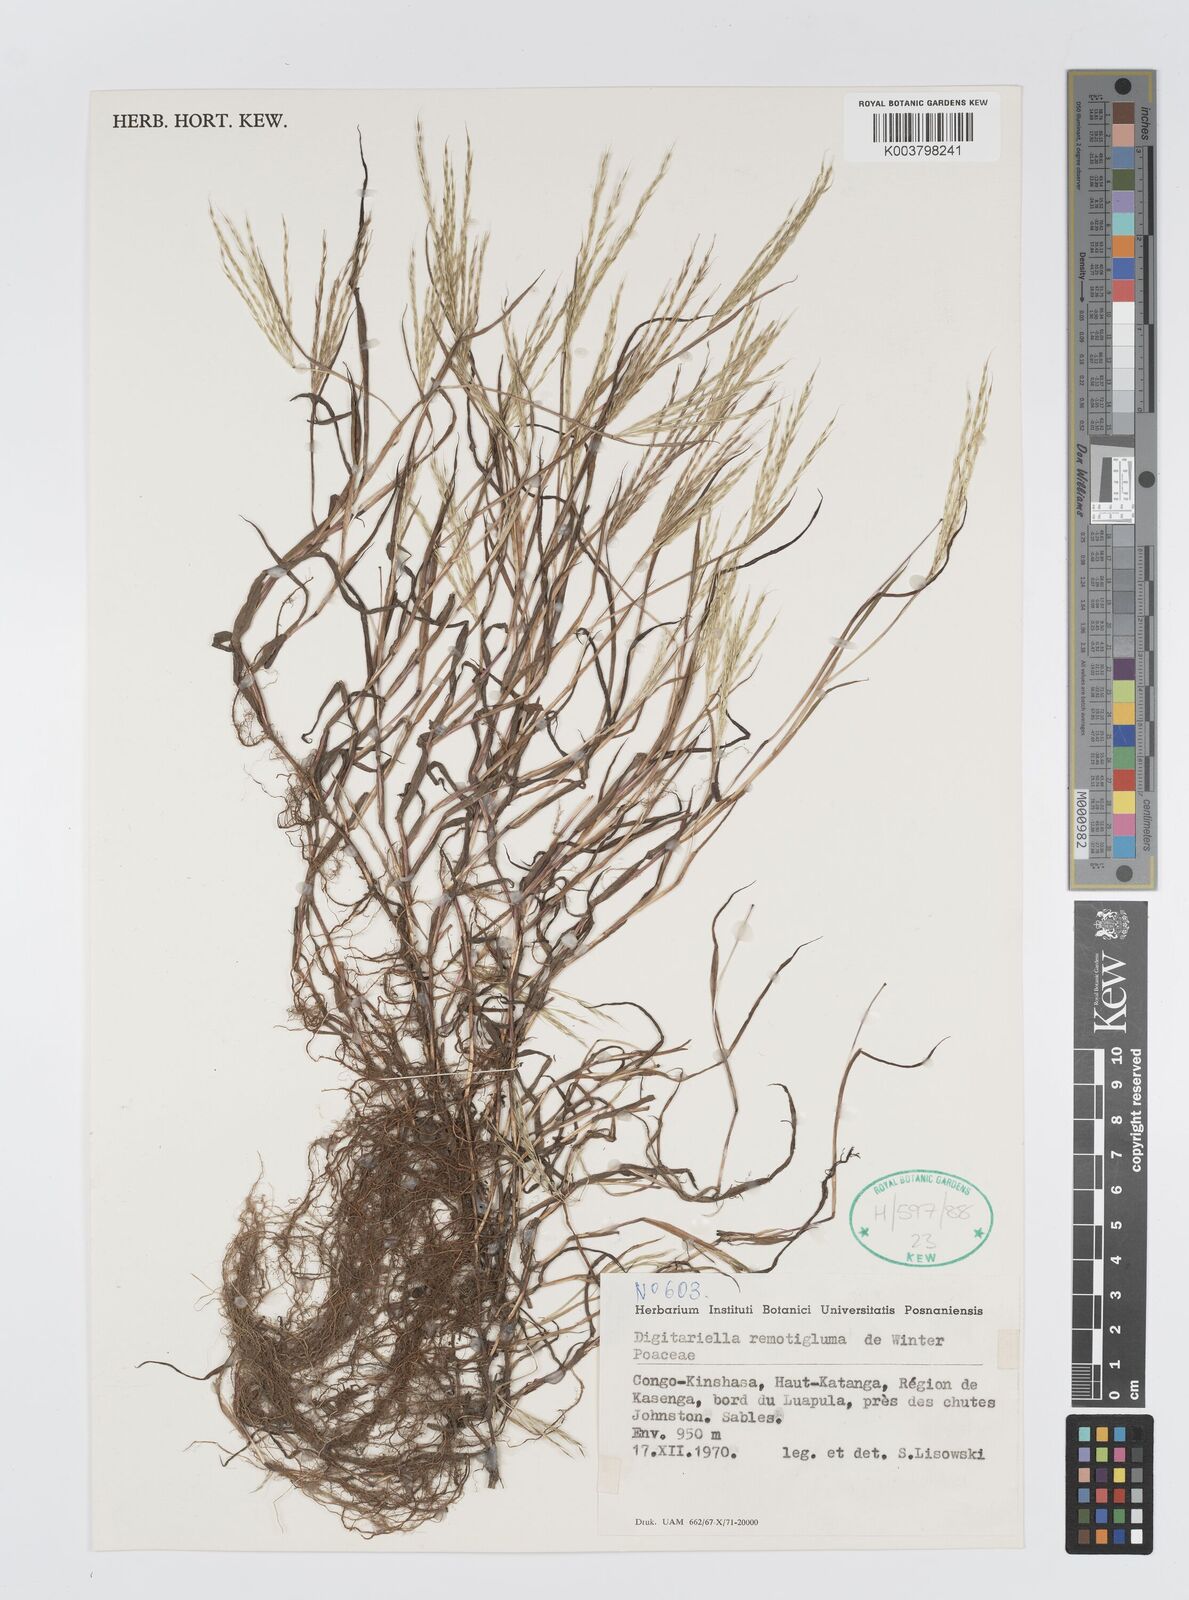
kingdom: Plantae
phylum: Tracheophyta
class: Liliopsida
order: Poales
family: Poaceae
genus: Digitaria
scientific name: Digitaria remotigluma
